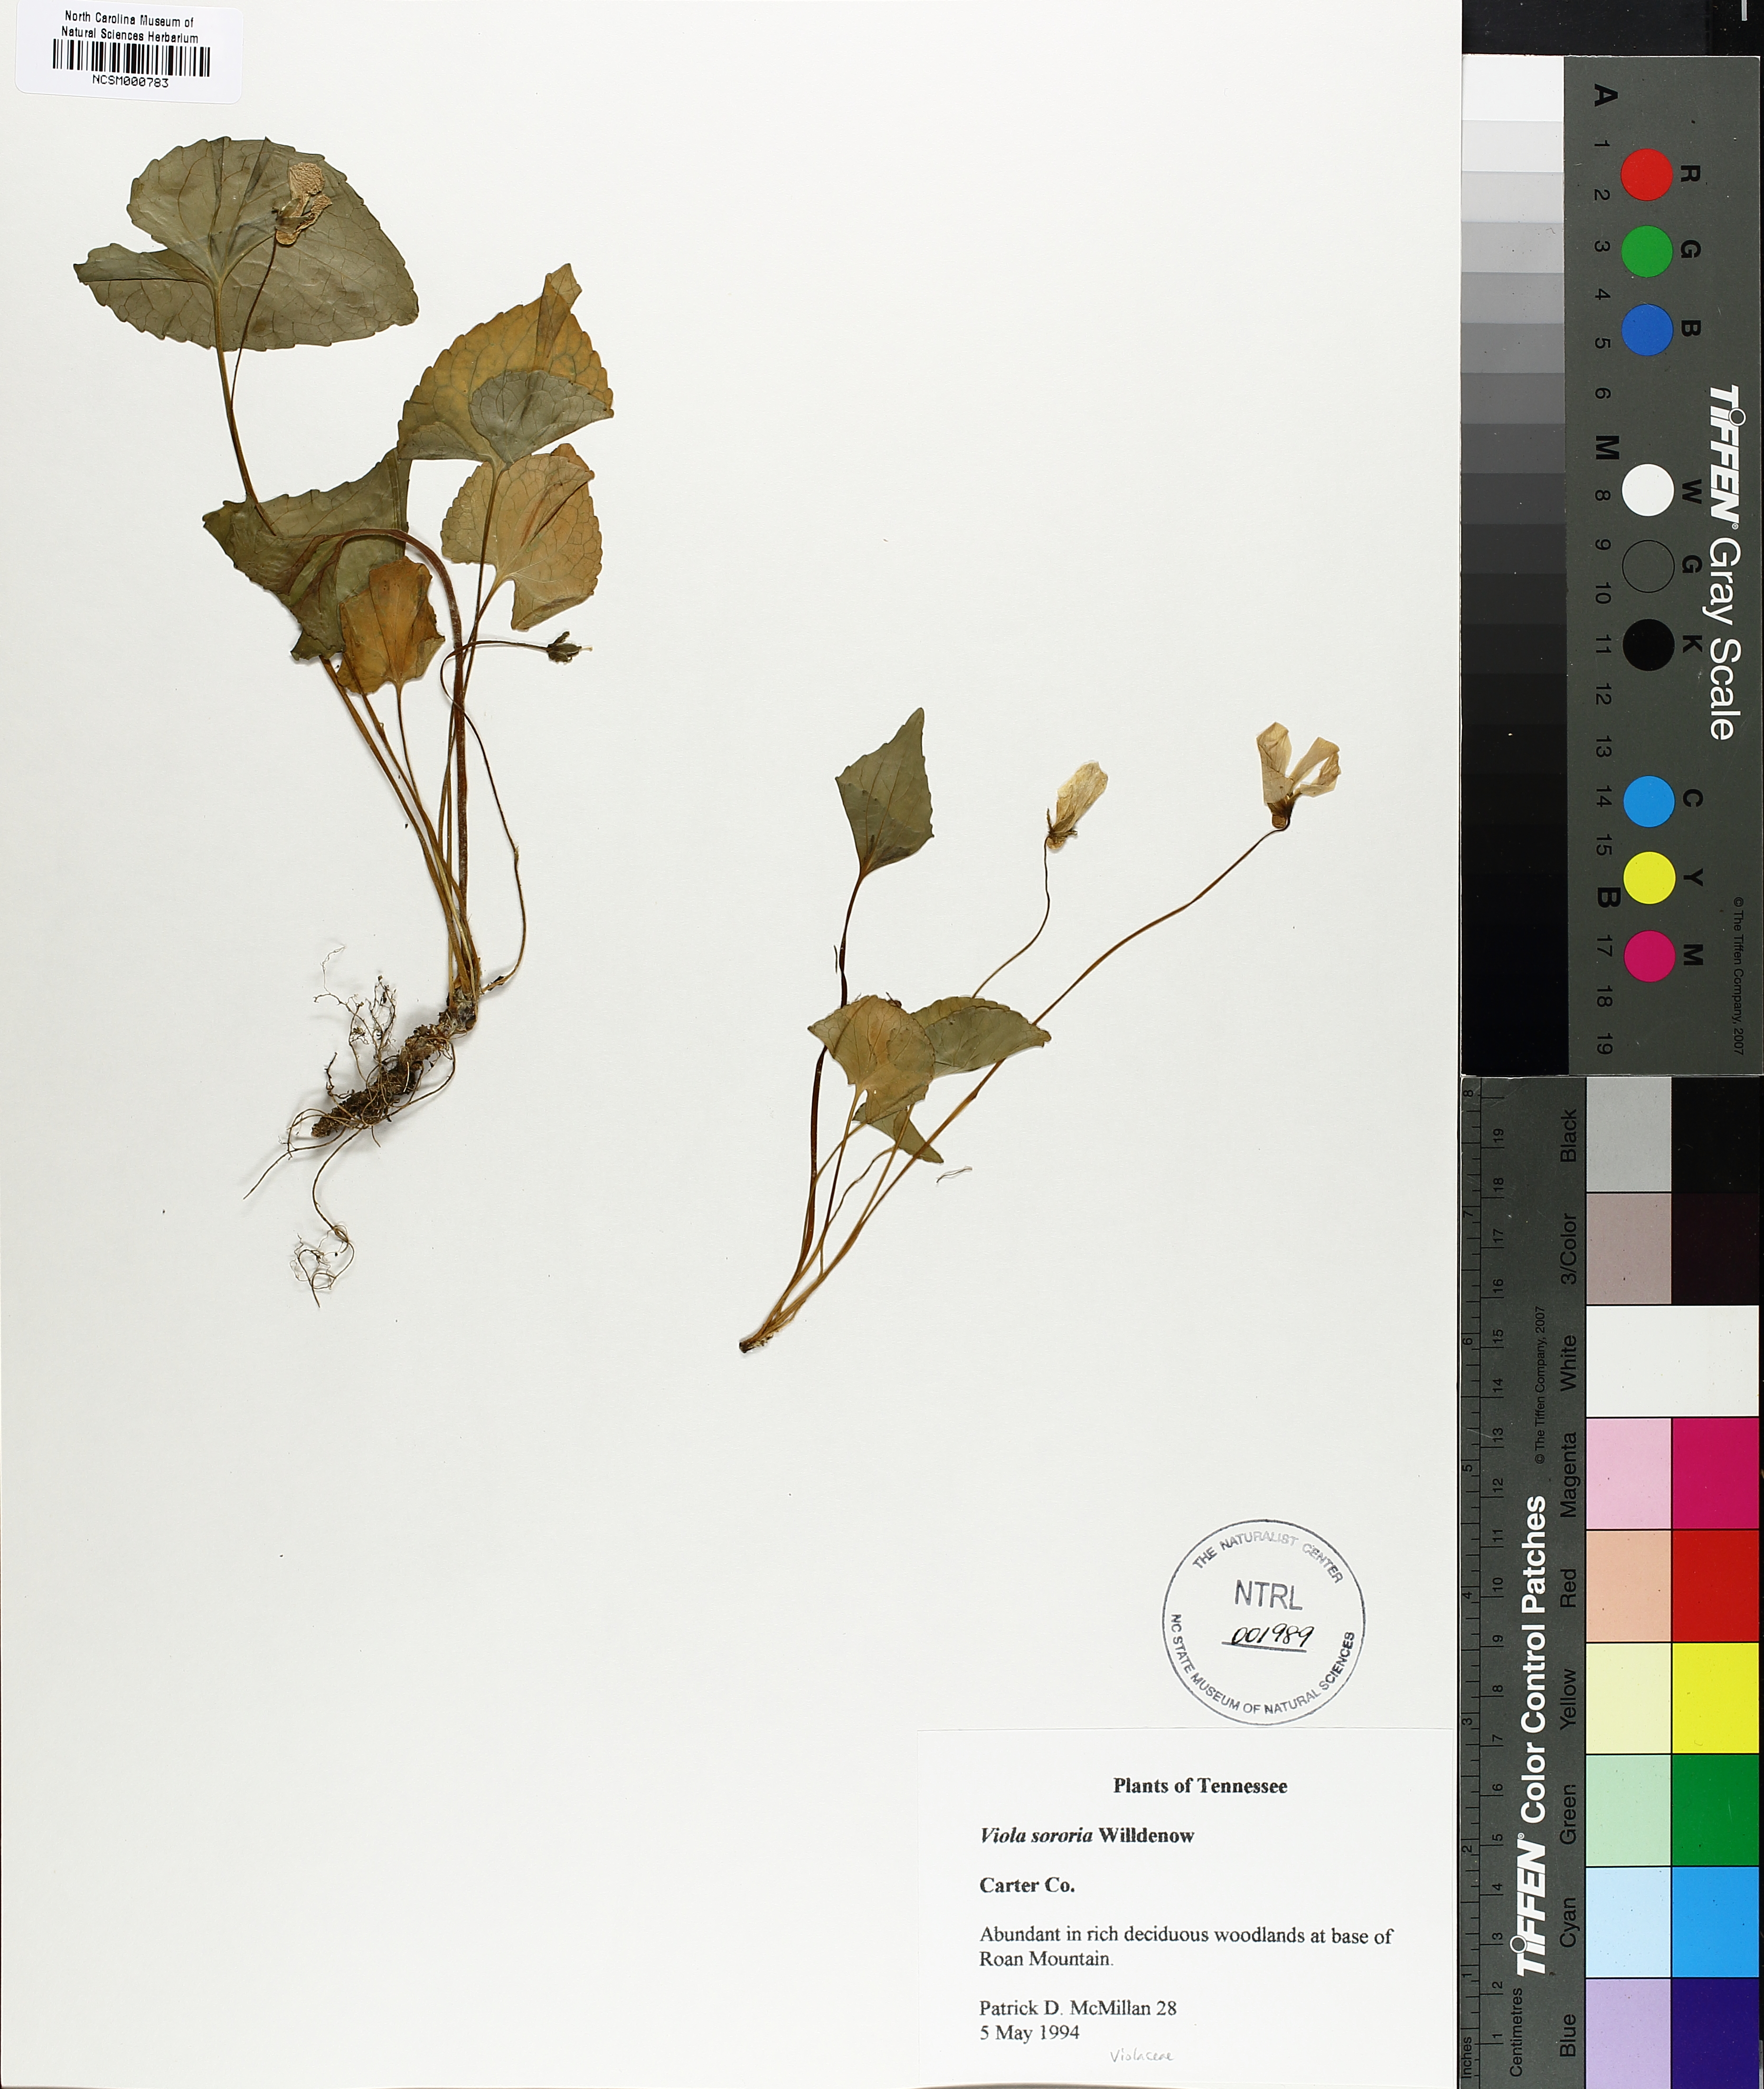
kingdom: Plantae
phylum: Tracheophyta
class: Magnoliopsida
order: Malpighiales
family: Violaceae
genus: Viola
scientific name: Viola sororia
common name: Dooryard violet
